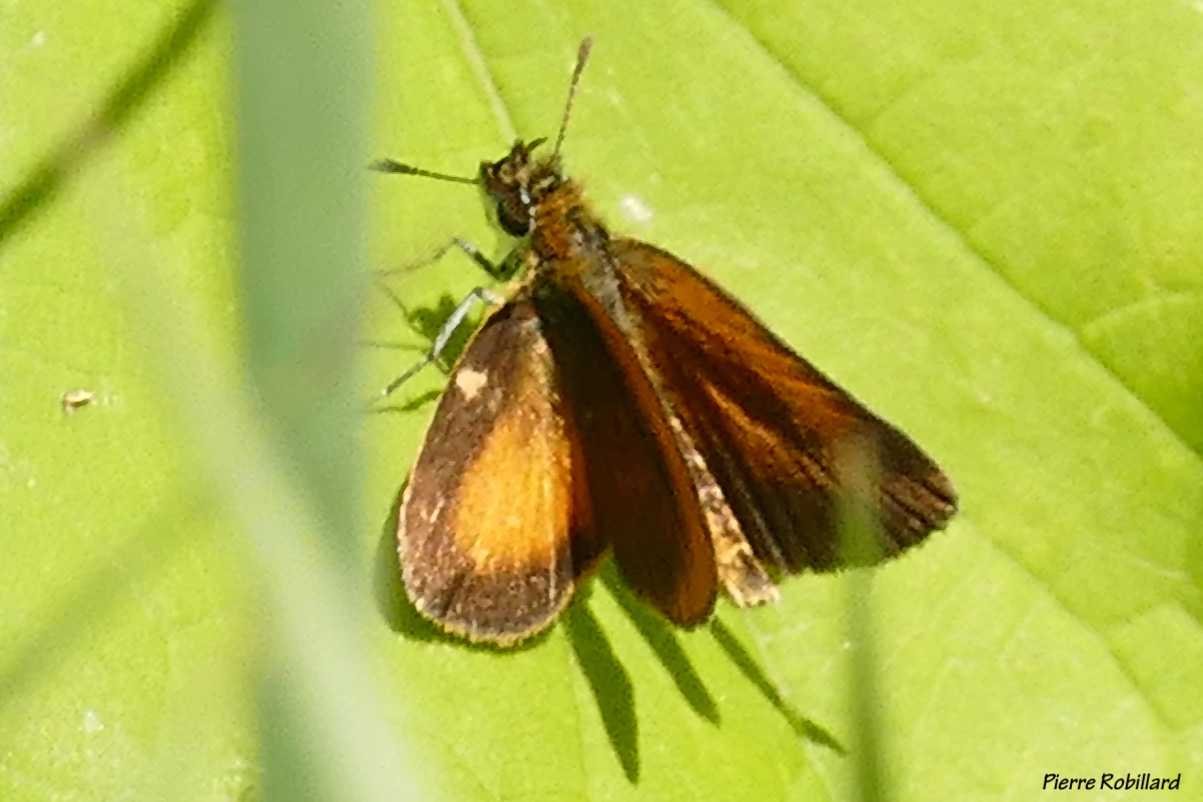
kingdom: Animalia
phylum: Arthropoda
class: Insecta
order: Lepidoptera
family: Hesperiidae
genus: Ancyloxypha
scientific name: Ancyloxypha numitor
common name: Least Skipper
